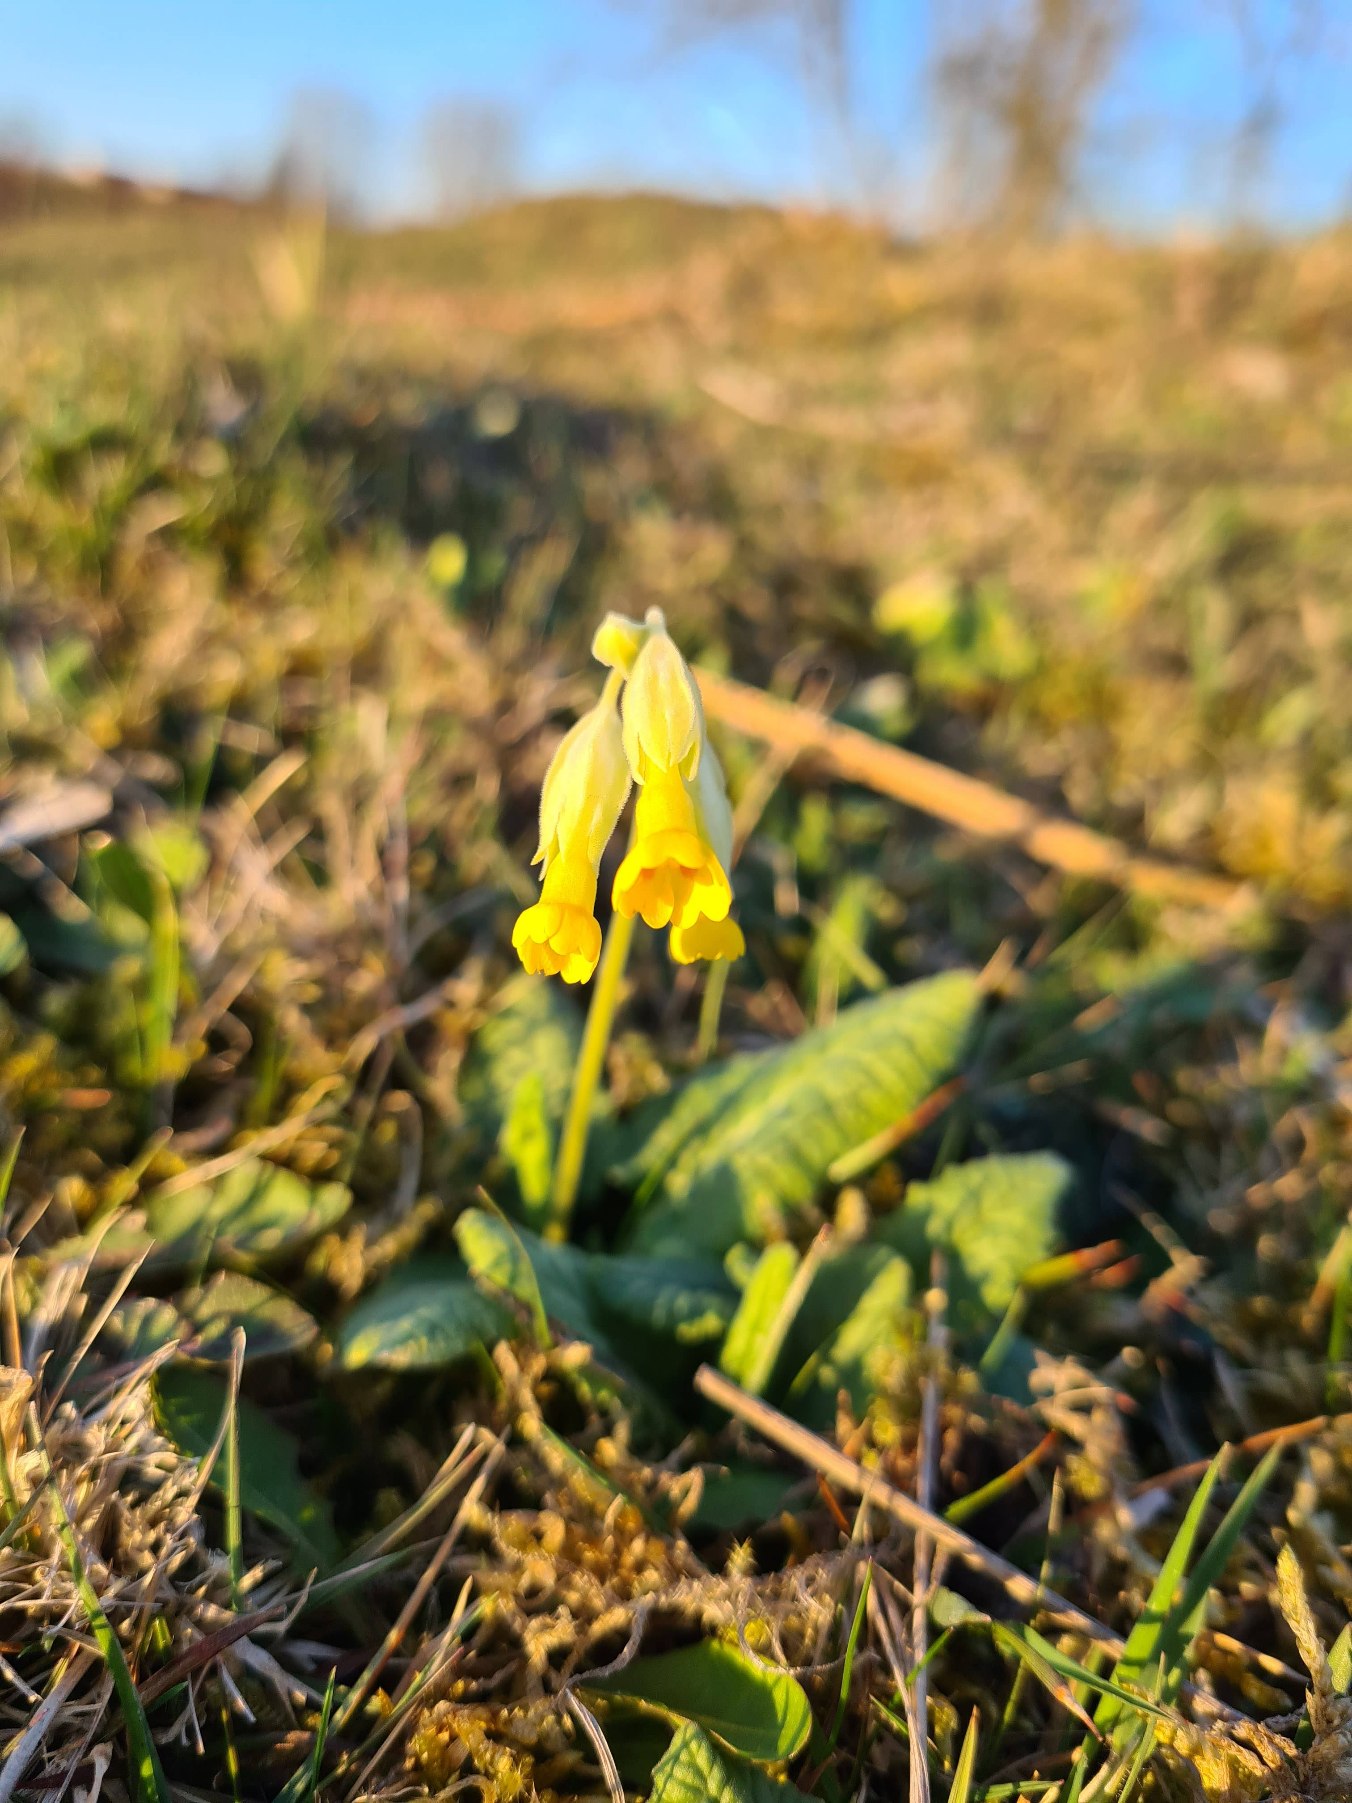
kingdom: Plantae
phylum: Tracheophyta
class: Magnoliopsida
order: Ericales
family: Primulaceae
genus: Primula
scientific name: Primula veris
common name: Hulkravet kodriver
